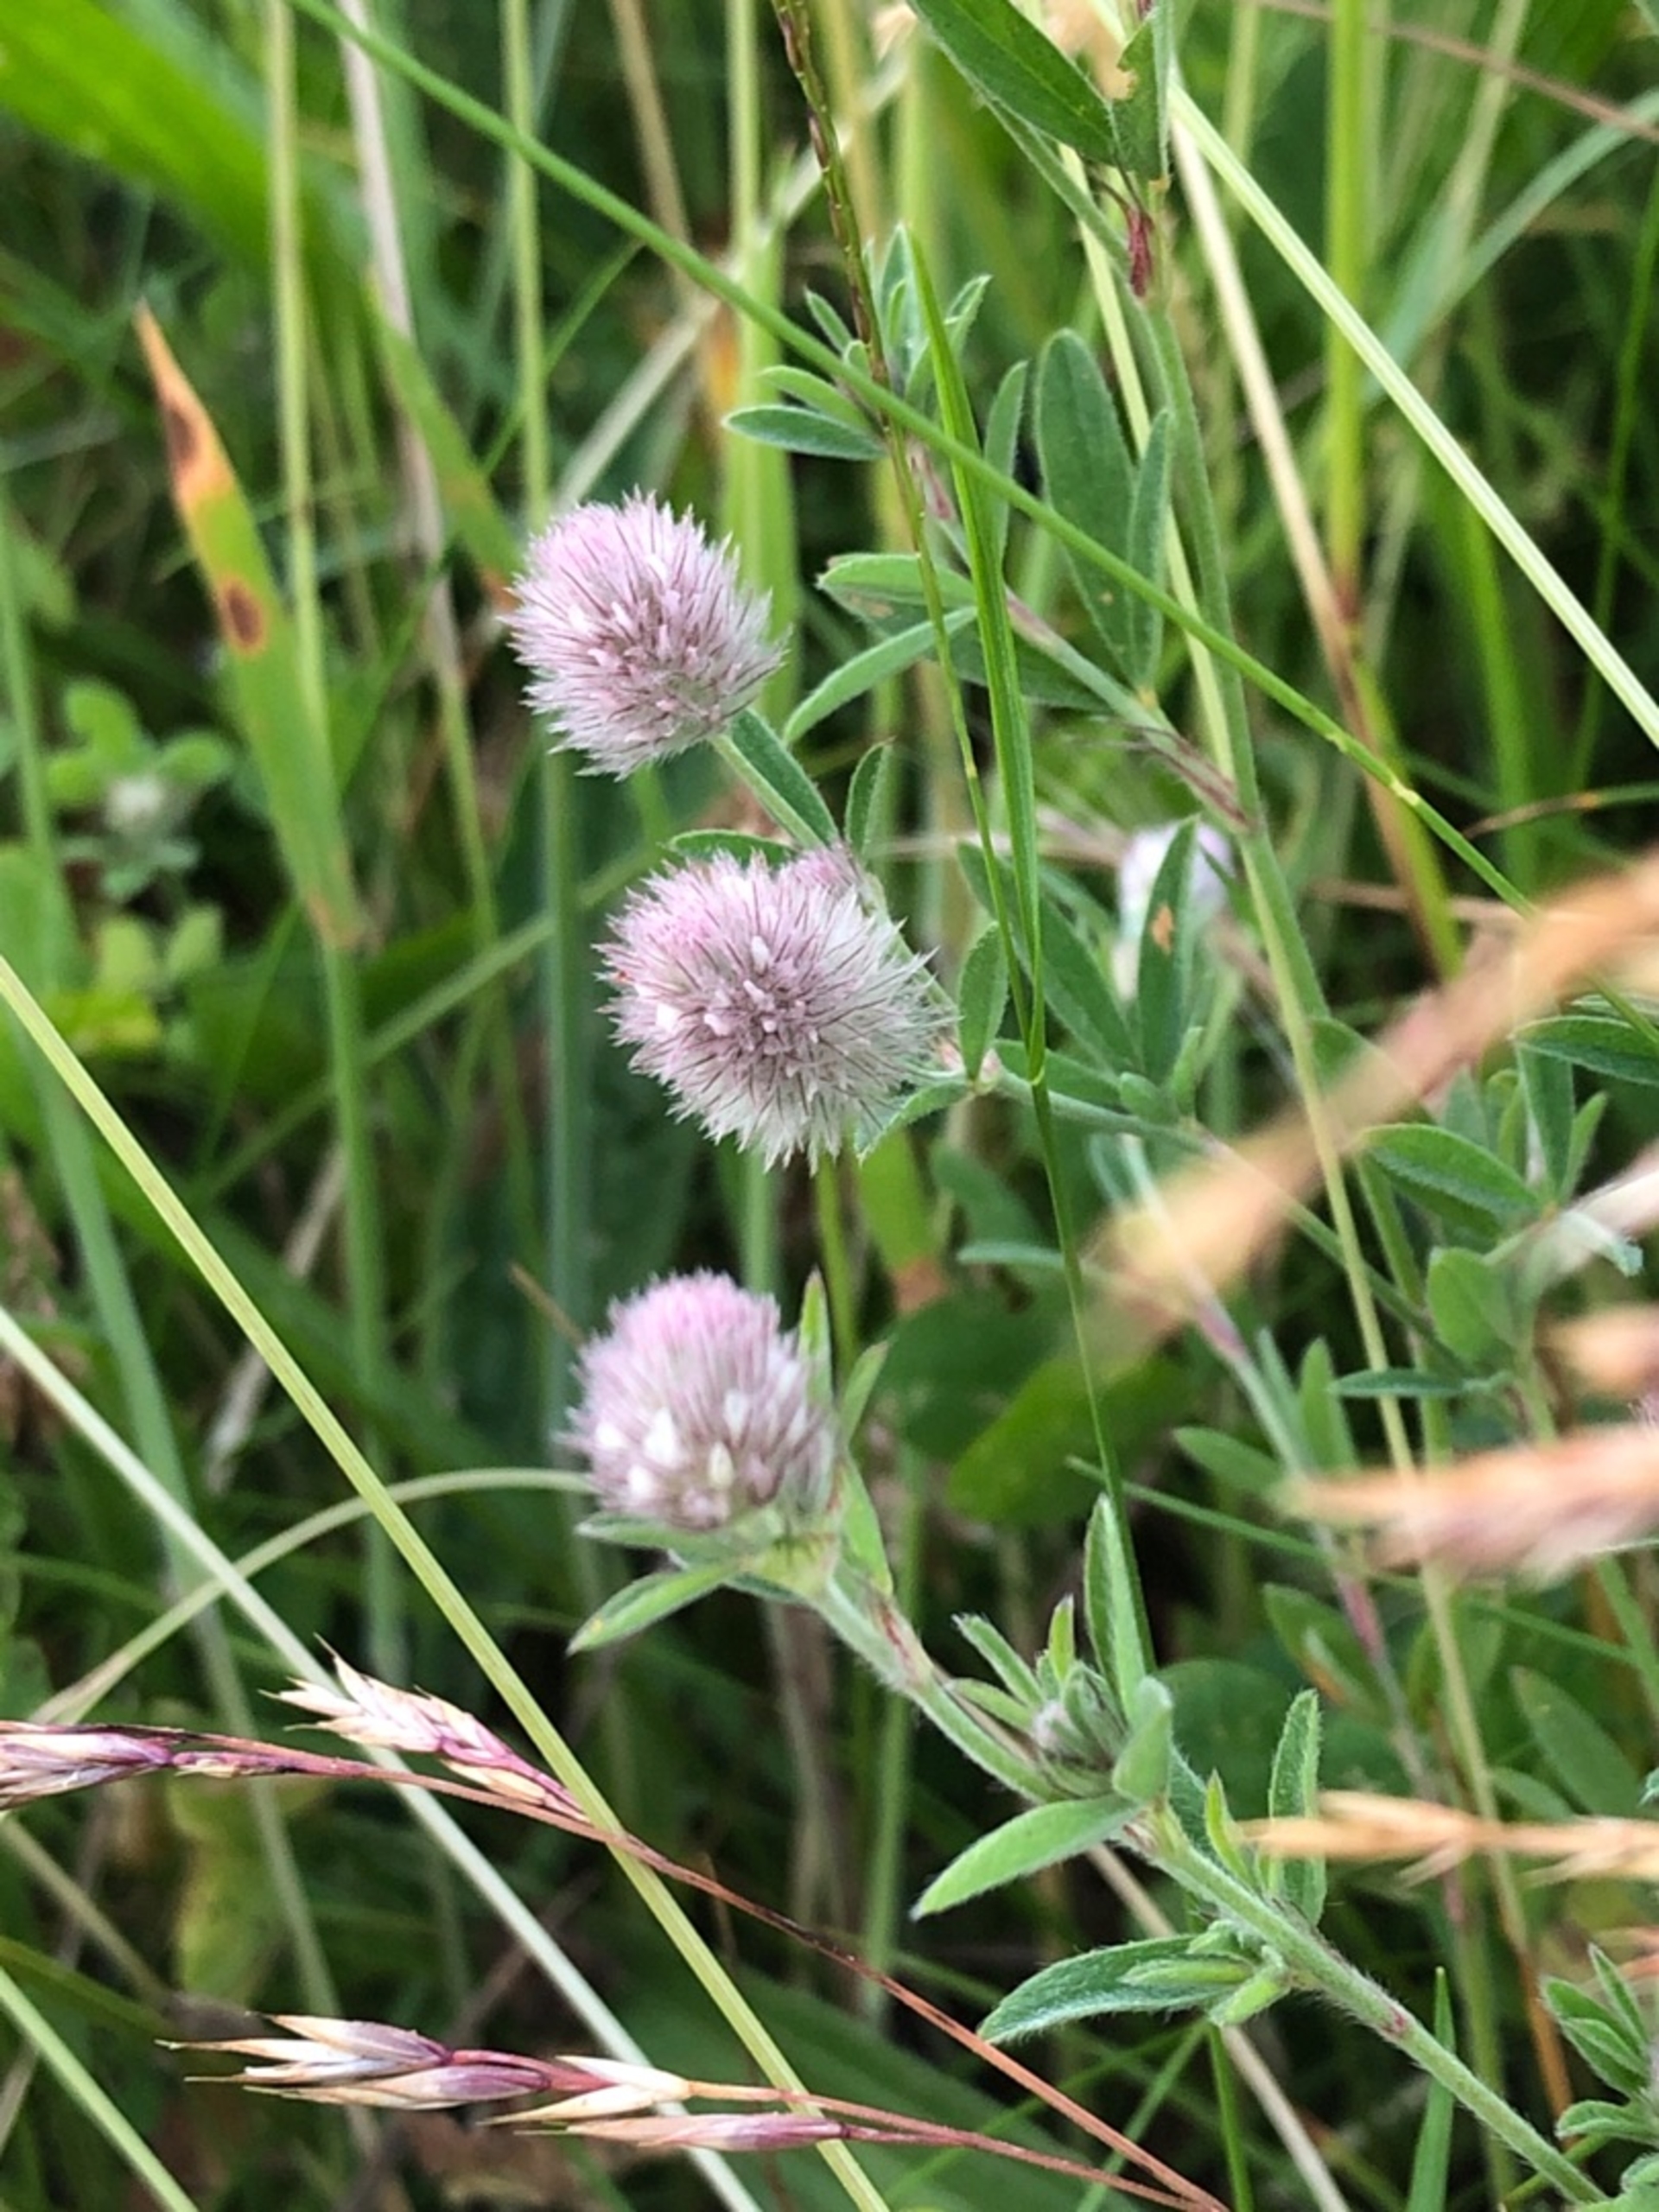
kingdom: Plantae
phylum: Tracheophyta
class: Magnoliopsida
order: Fabales
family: Fabaceae
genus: Trifolium
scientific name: Trifolium arvense
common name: Hare-kløver
